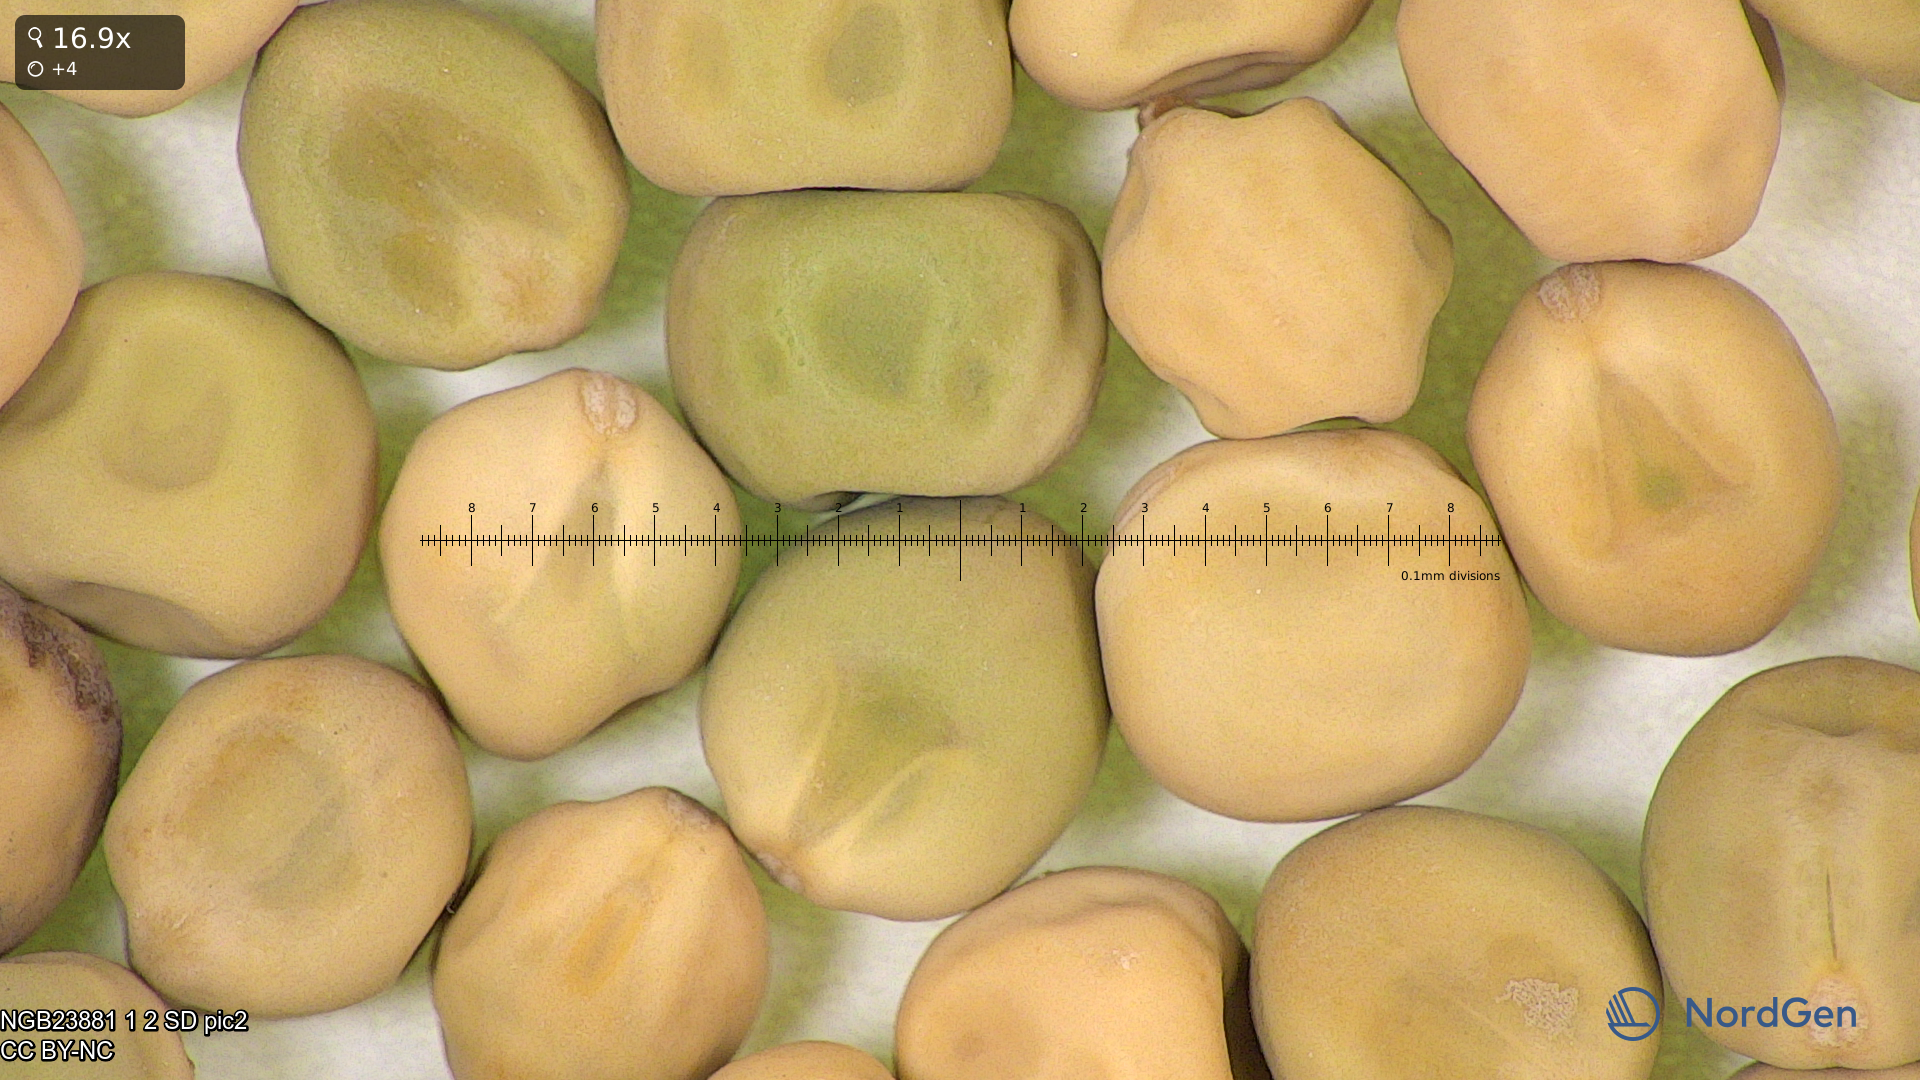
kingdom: Plantae
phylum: Tracheophyta
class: Magnoliopsida
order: Fabales
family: Fabaceae
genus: Lathyrus
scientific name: Lathyrus oleraceus
